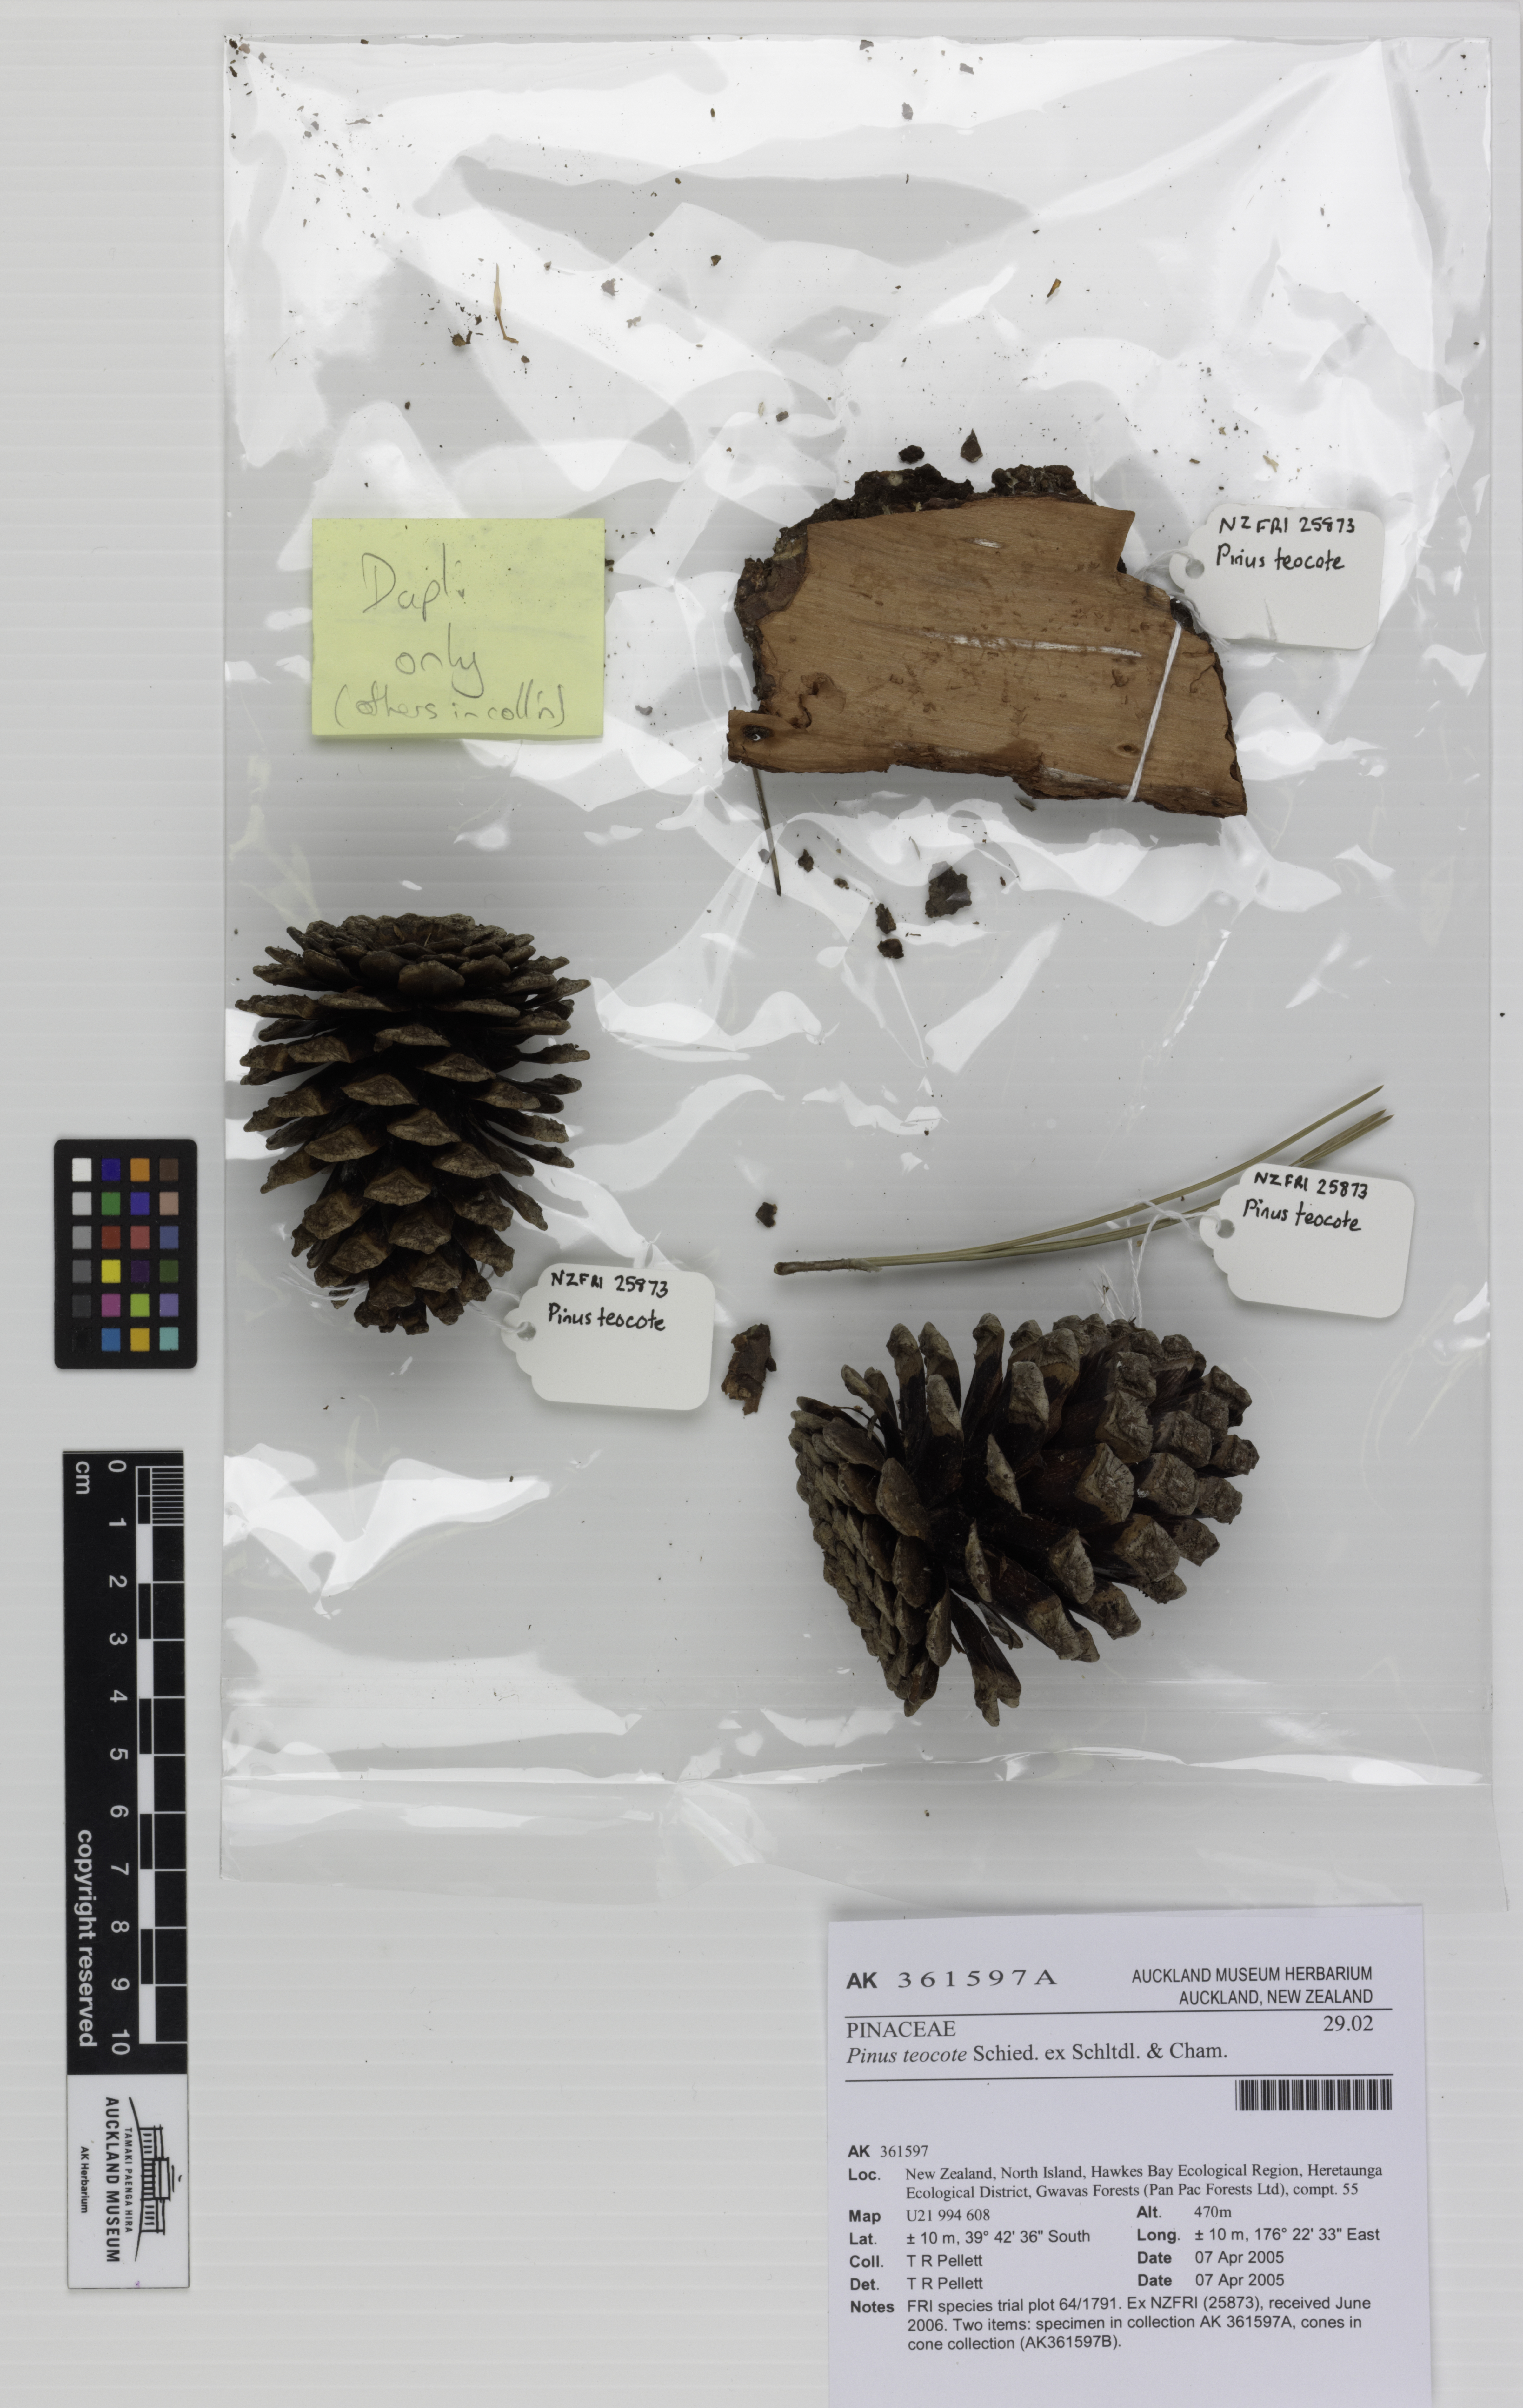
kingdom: Plantae
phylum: Tracheophyta
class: Pinopsida
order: Pinales
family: Pinaceae
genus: Pinus
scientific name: Pinus teocote
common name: Aztec pine
